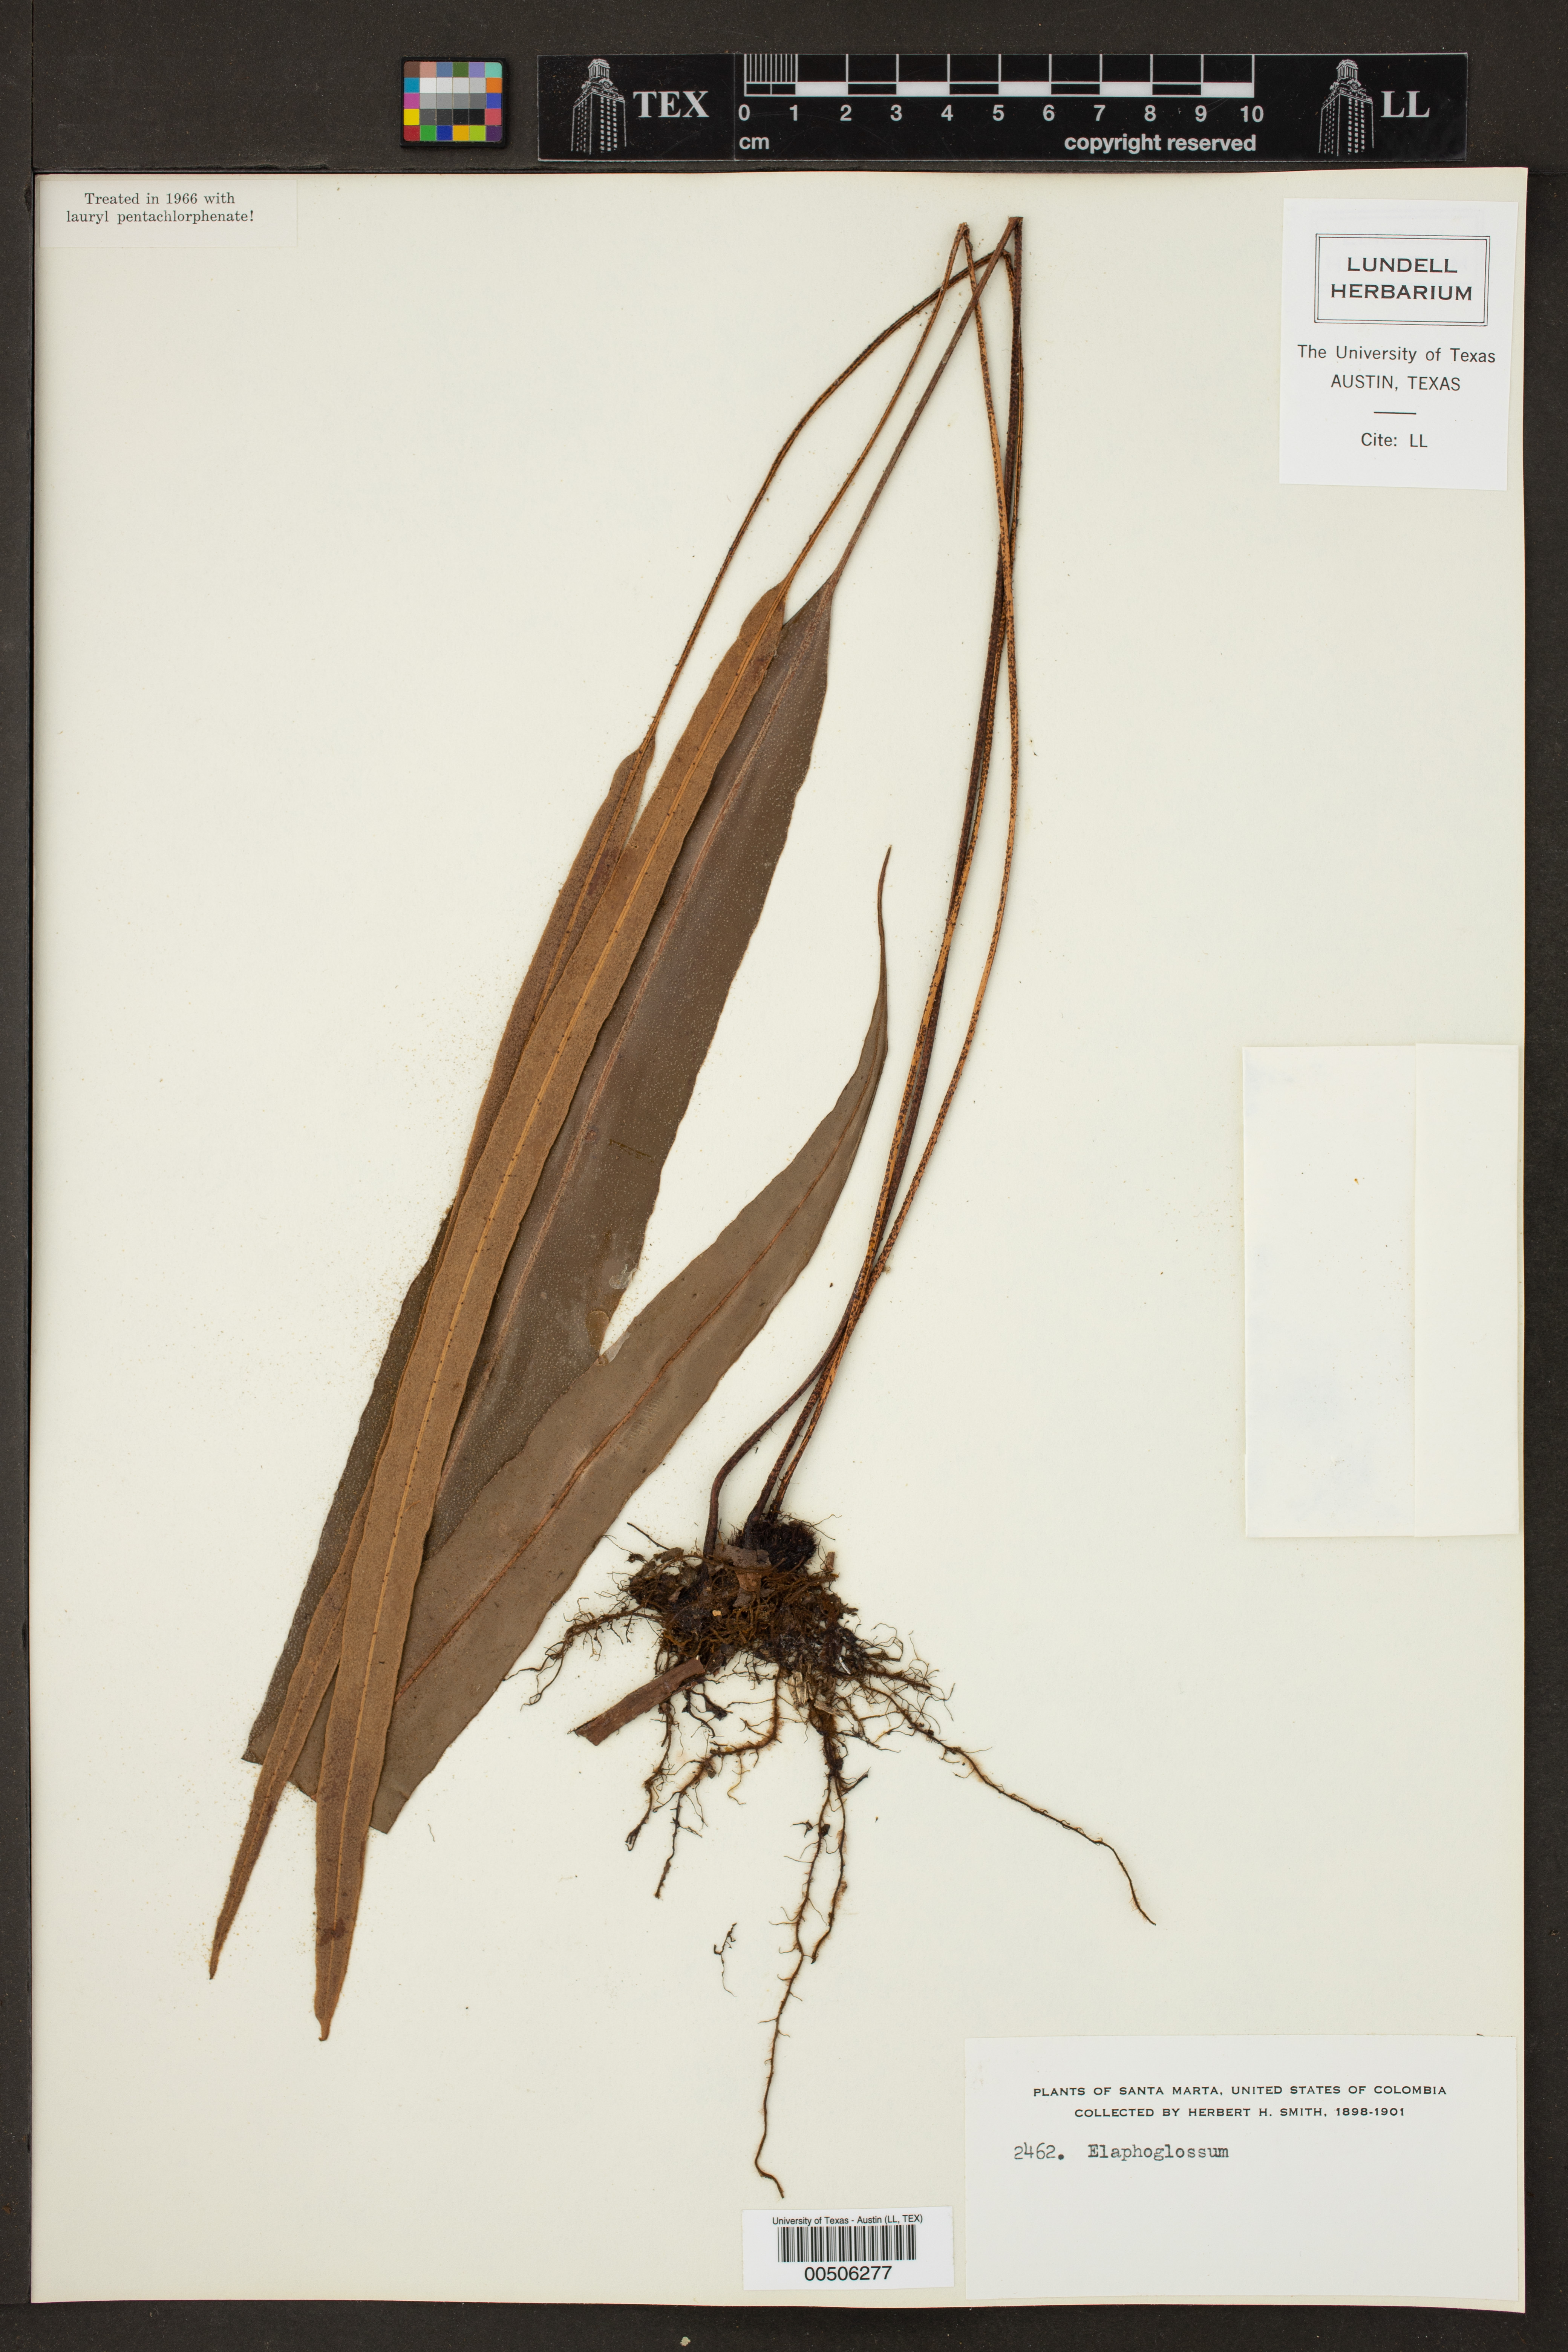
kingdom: Plantae
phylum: Tracheophyta
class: Polypodiopsida
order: Polypodiales
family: Dryopteridaceae
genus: Elaphoglossum
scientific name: Elaphoglossum
